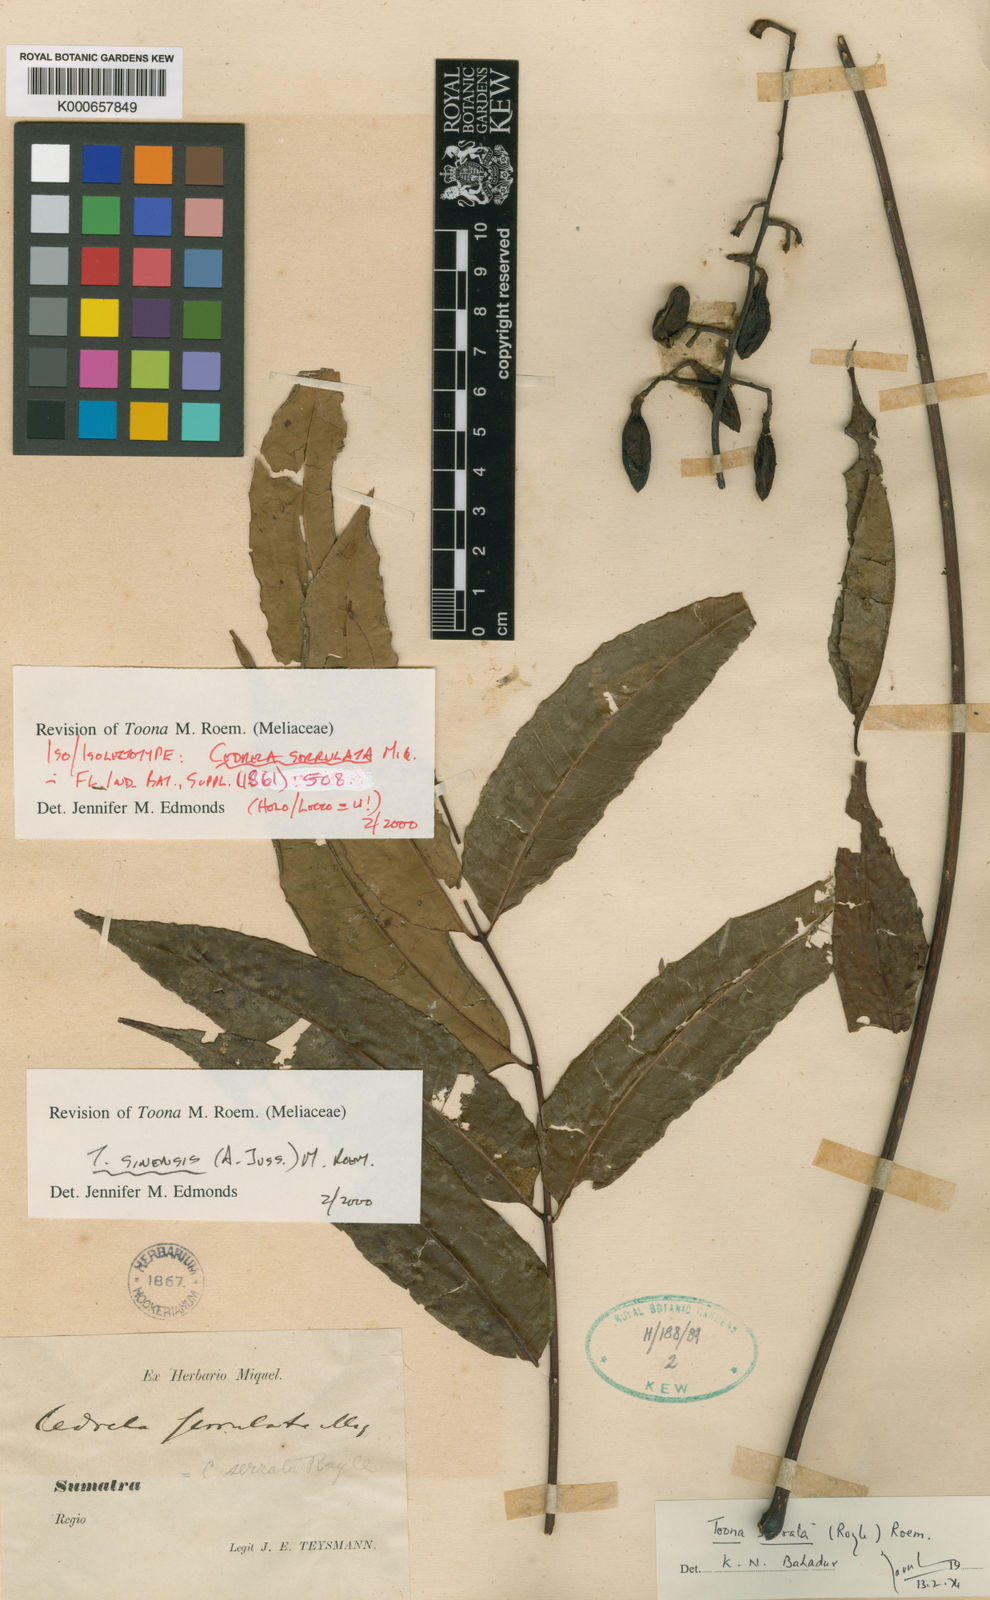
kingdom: Plantae
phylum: Tracheophyta
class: Magnoliopsida
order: Sapindales
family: Meliaceae
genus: Toona
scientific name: Toona sinensis
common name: Red toon
